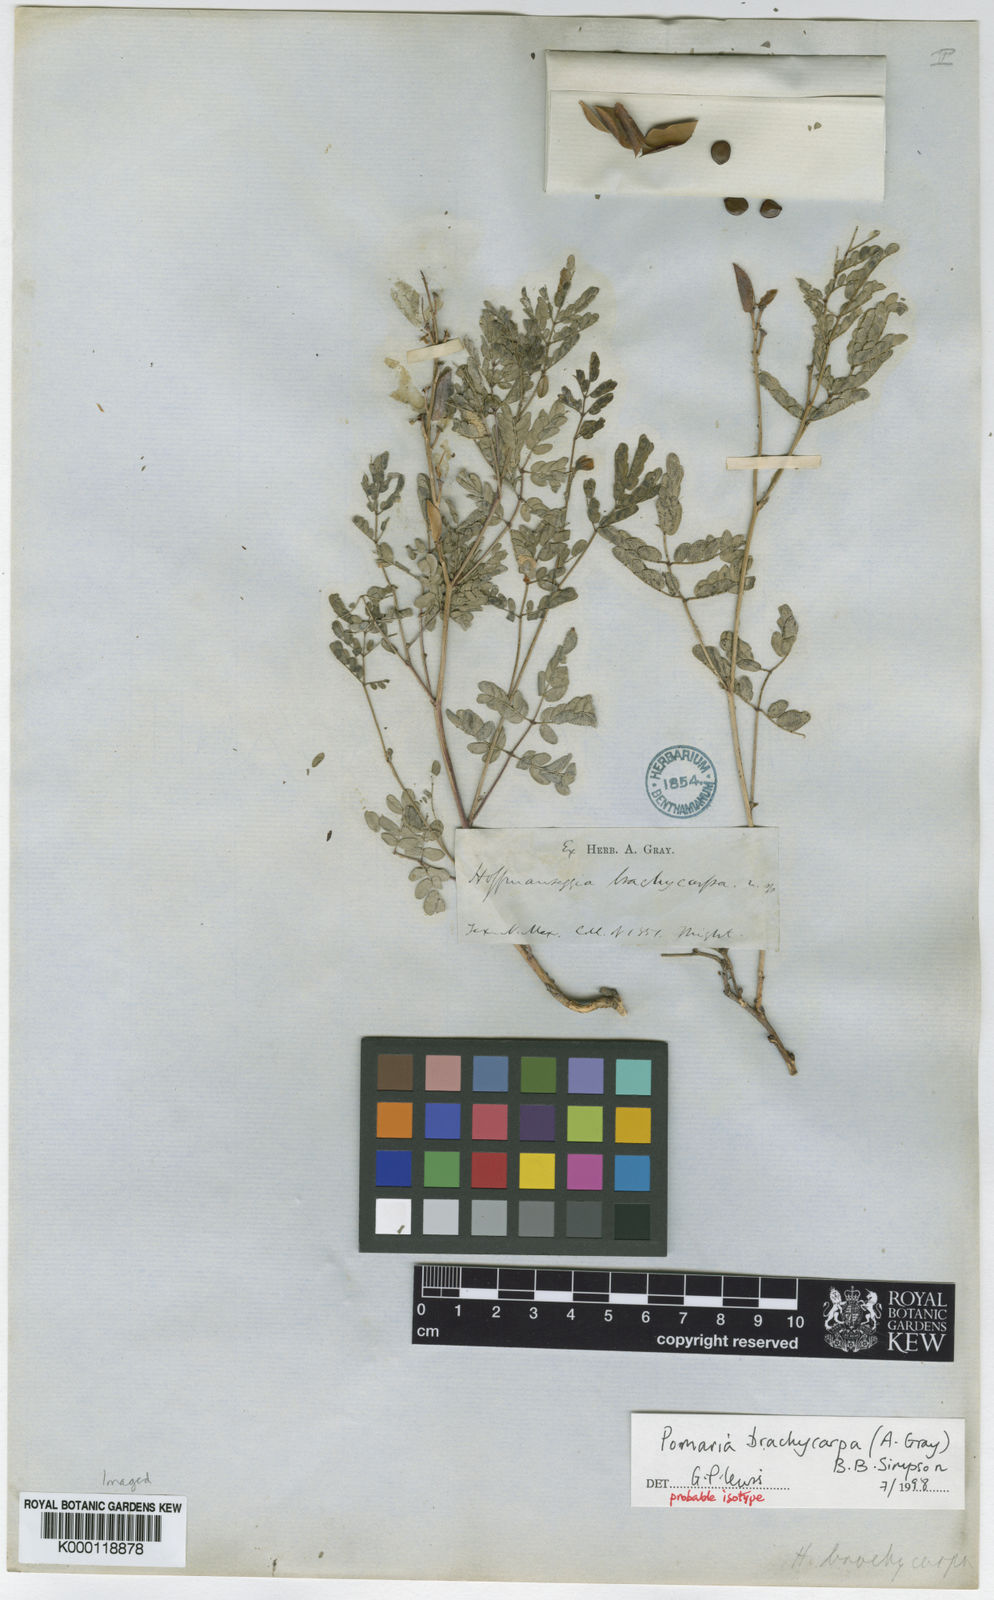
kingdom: Plantae
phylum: Tracheophyta
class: Magnoliopsida
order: Fabales
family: Fabaceae
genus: Pomaria
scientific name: Pomaria brachycarpa
